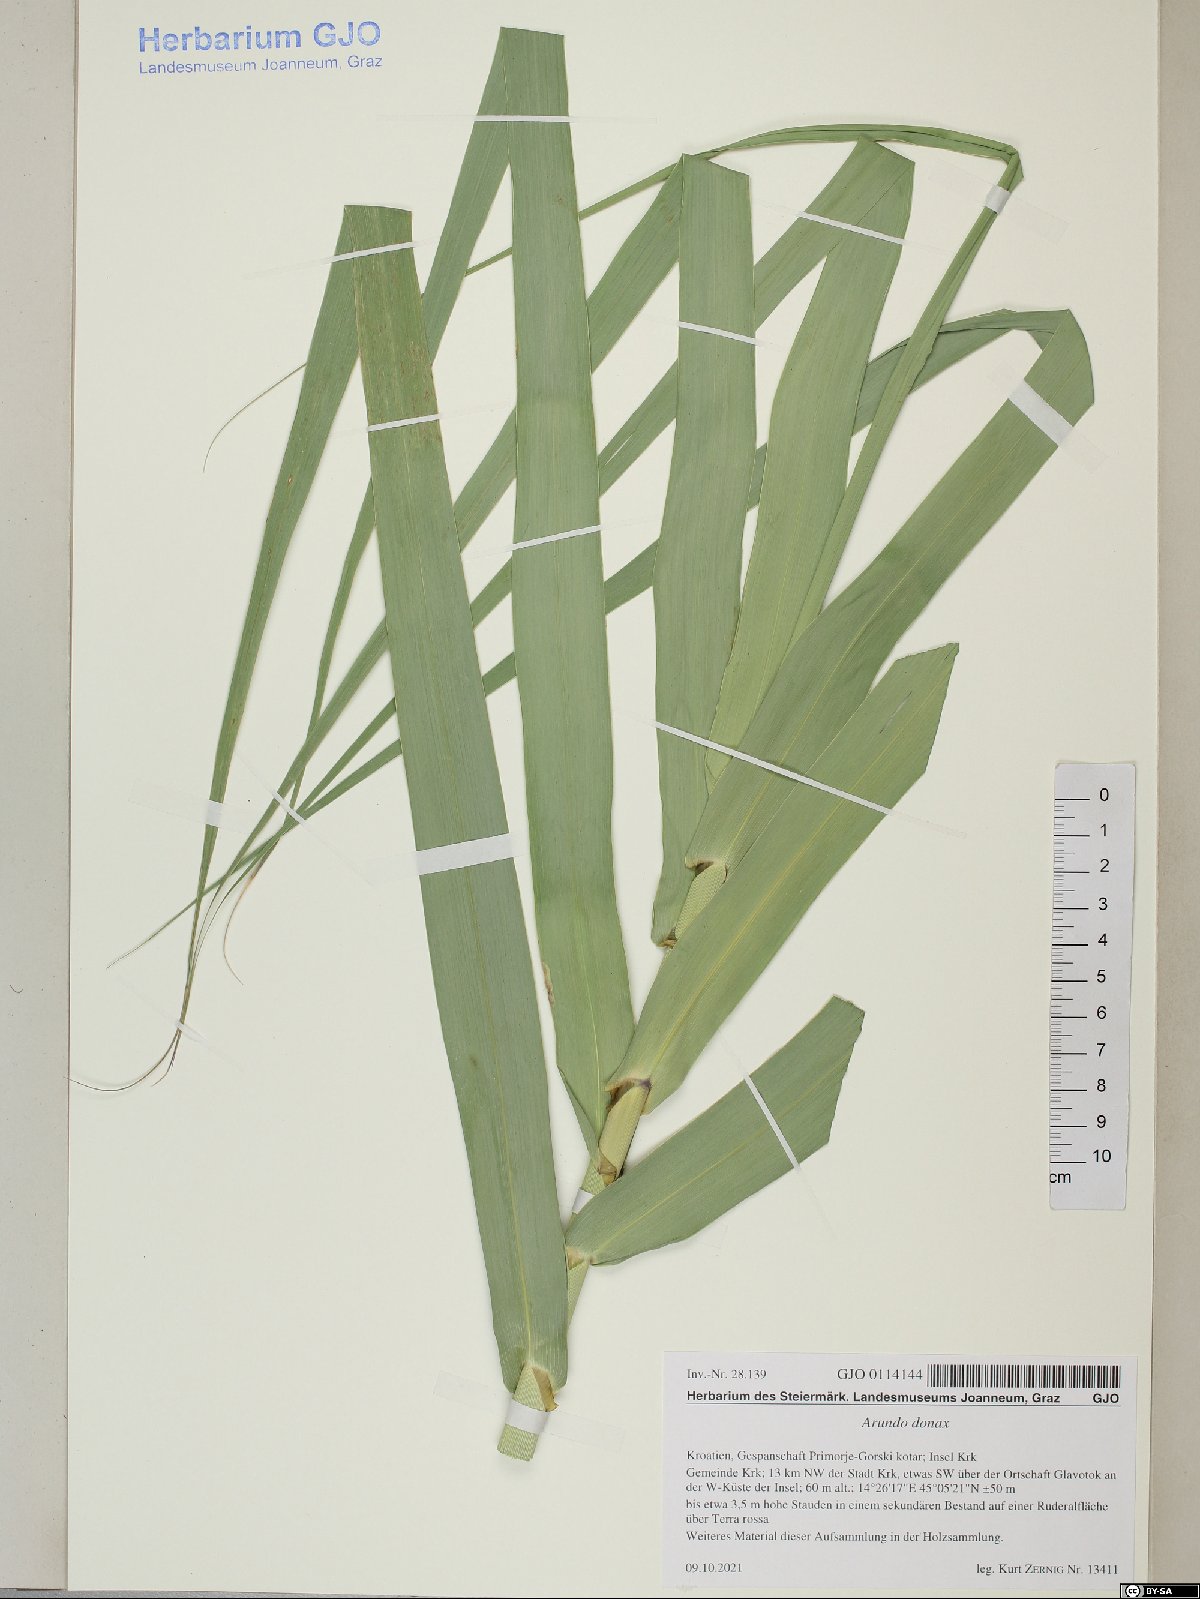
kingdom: Plantae
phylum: Tracheophyta
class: Liliopsida
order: Poales
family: Poaceae
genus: Arundo
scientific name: Arundo donax
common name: Giant reed
